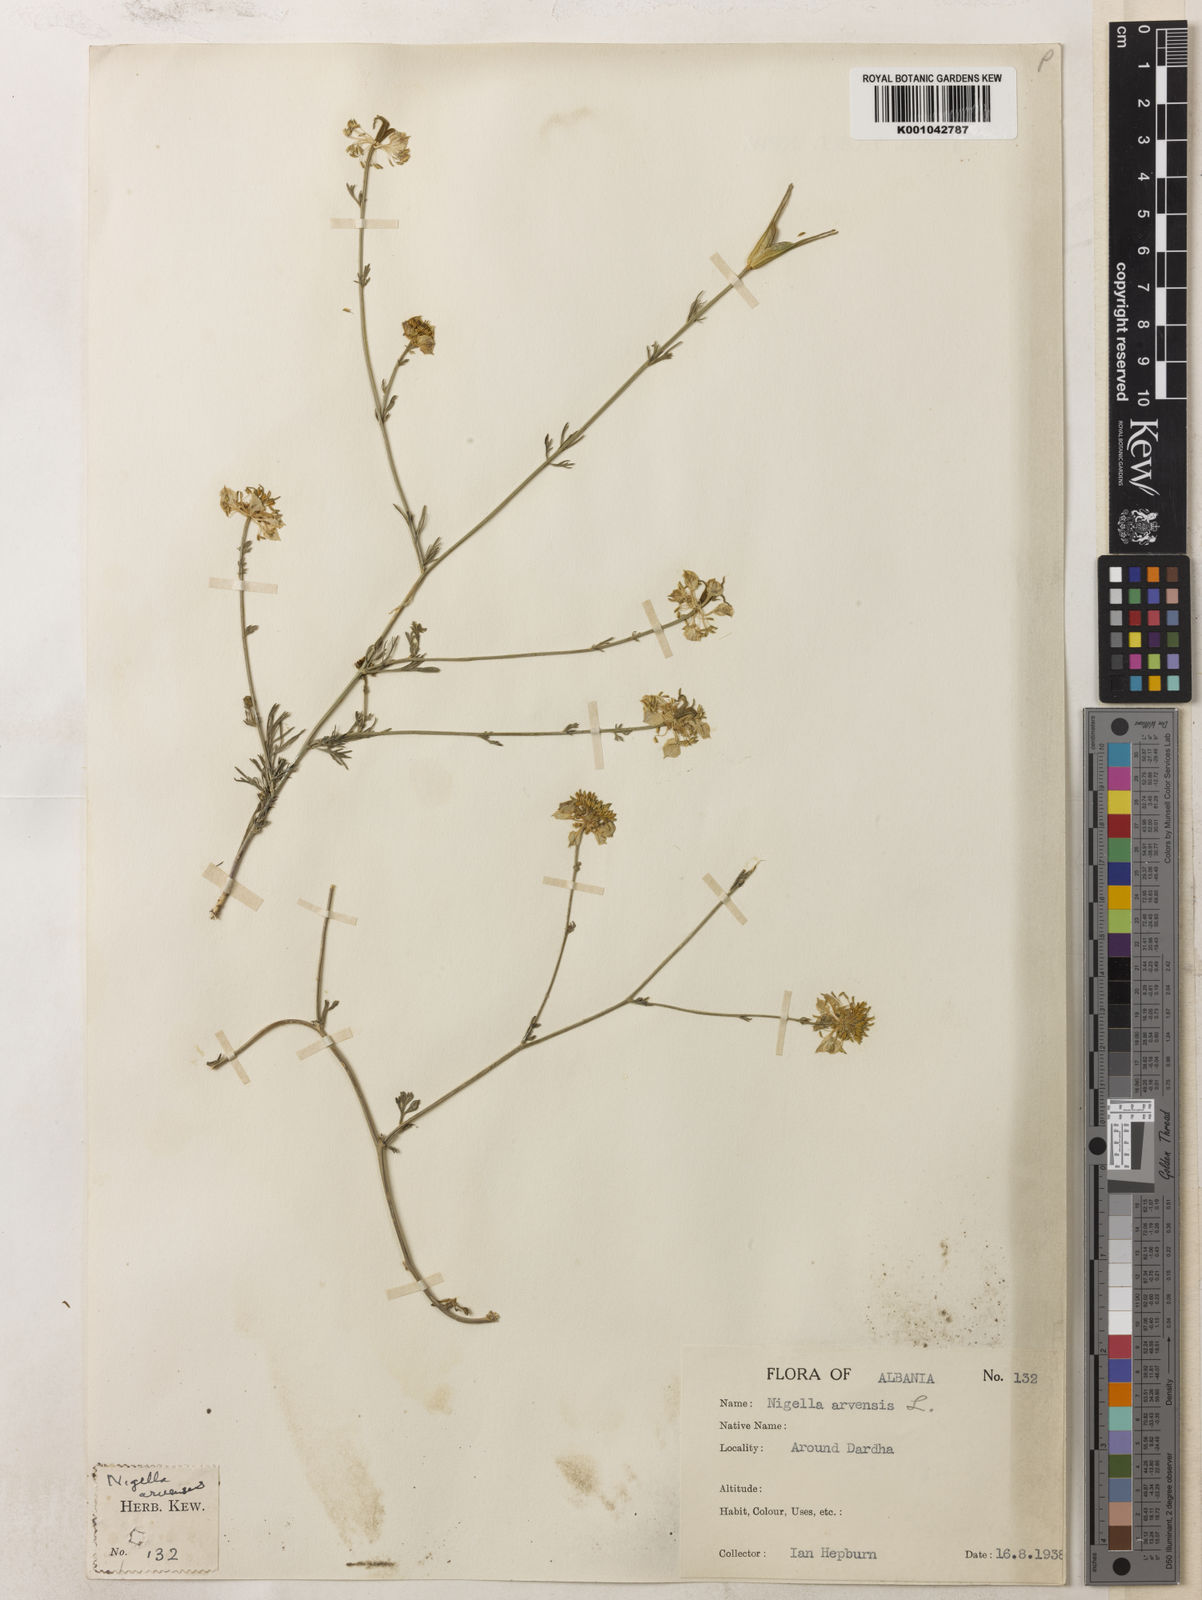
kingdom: Plantae
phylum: Tracheophyta
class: Magnoliopsida
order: Ranunculales
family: Ranunculaceae
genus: Nigella
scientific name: Nigella degenii
